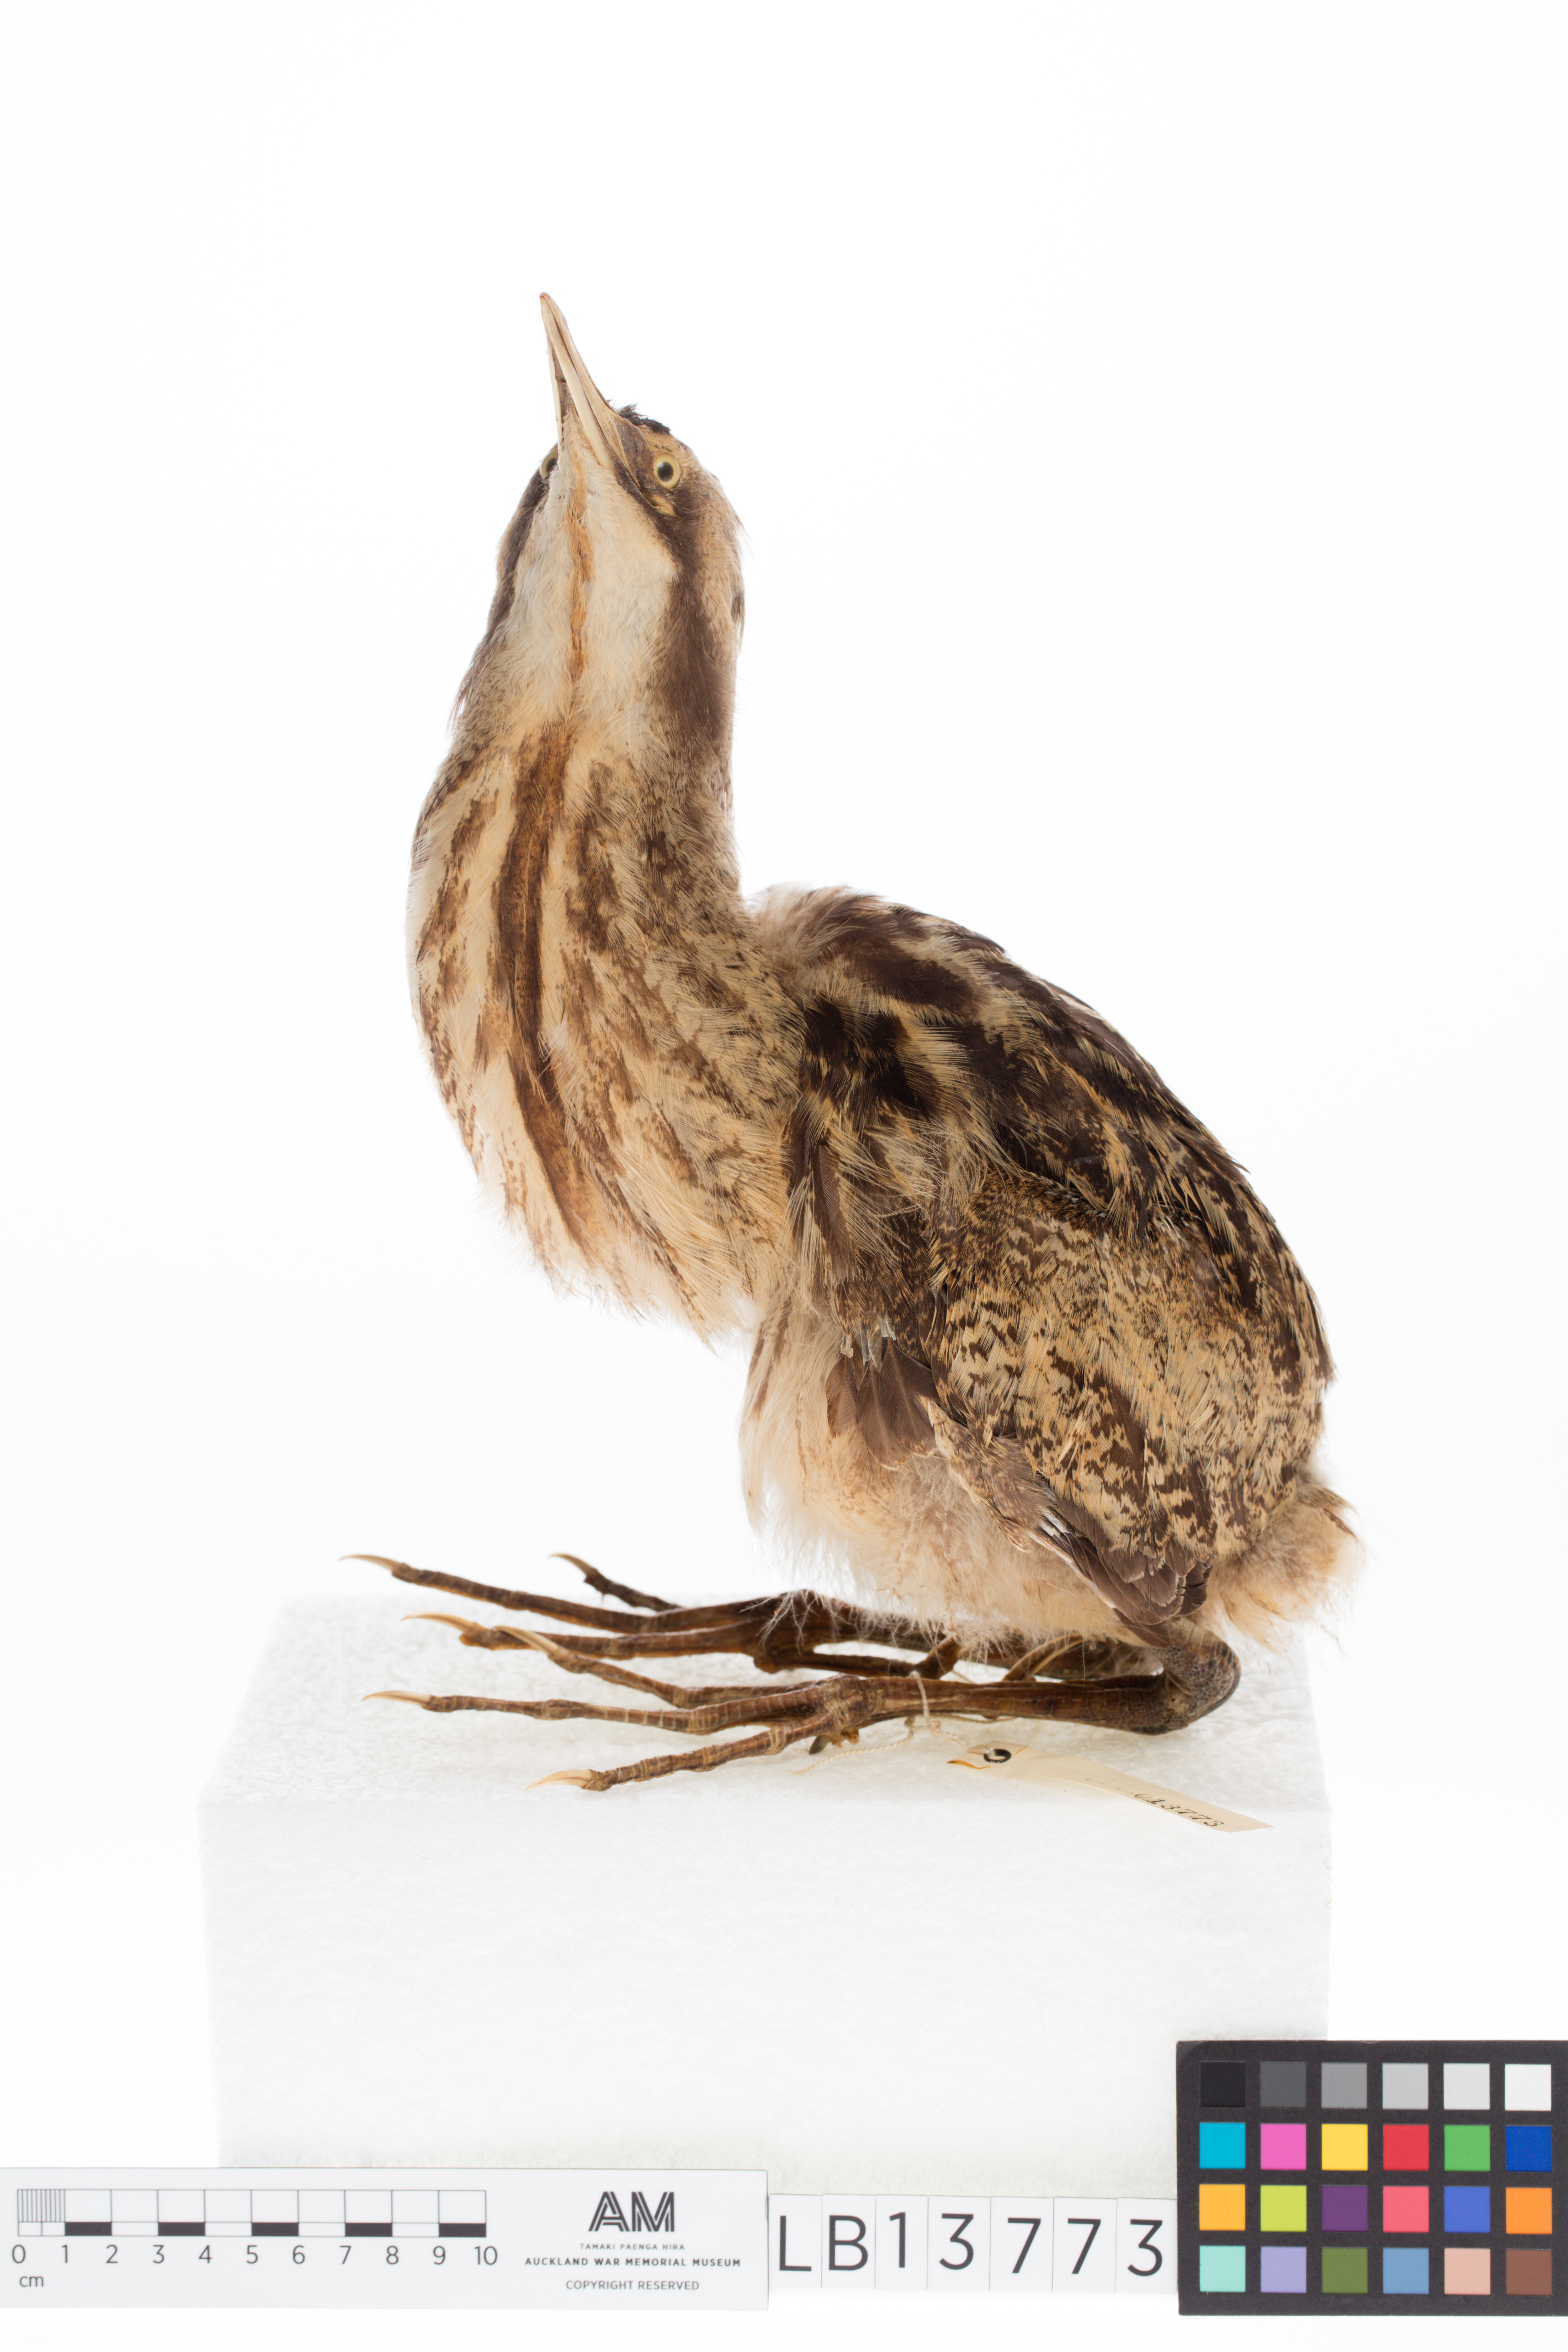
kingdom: Animalia
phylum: Chordata
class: Aves
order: Pelecaniformes
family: Ardeidae
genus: Botaurus
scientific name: Botaurus poiciloptilus
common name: Australasian bittern
